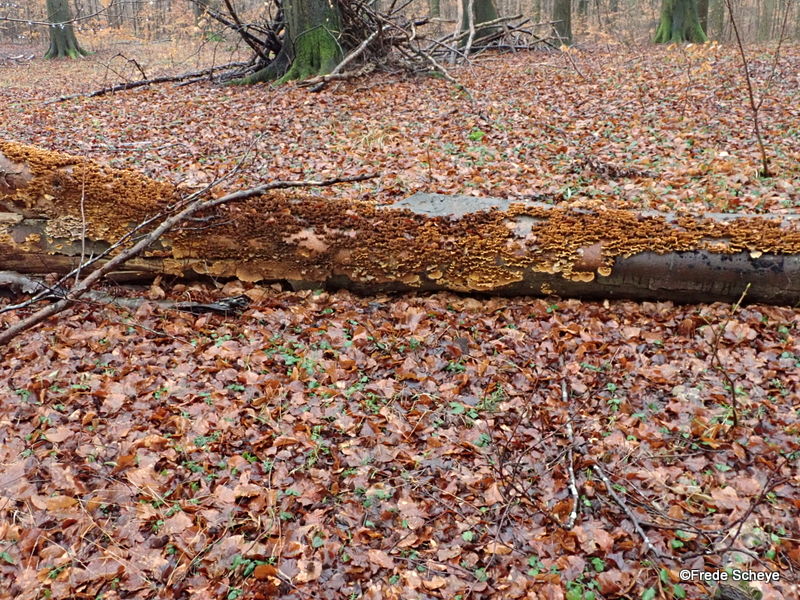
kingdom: Fungi
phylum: Basidiomycota
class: Agaricomycetes
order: Russulales
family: Stereaceae
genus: Stereum
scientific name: Stereum hirsutum
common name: håret lædersvamp
